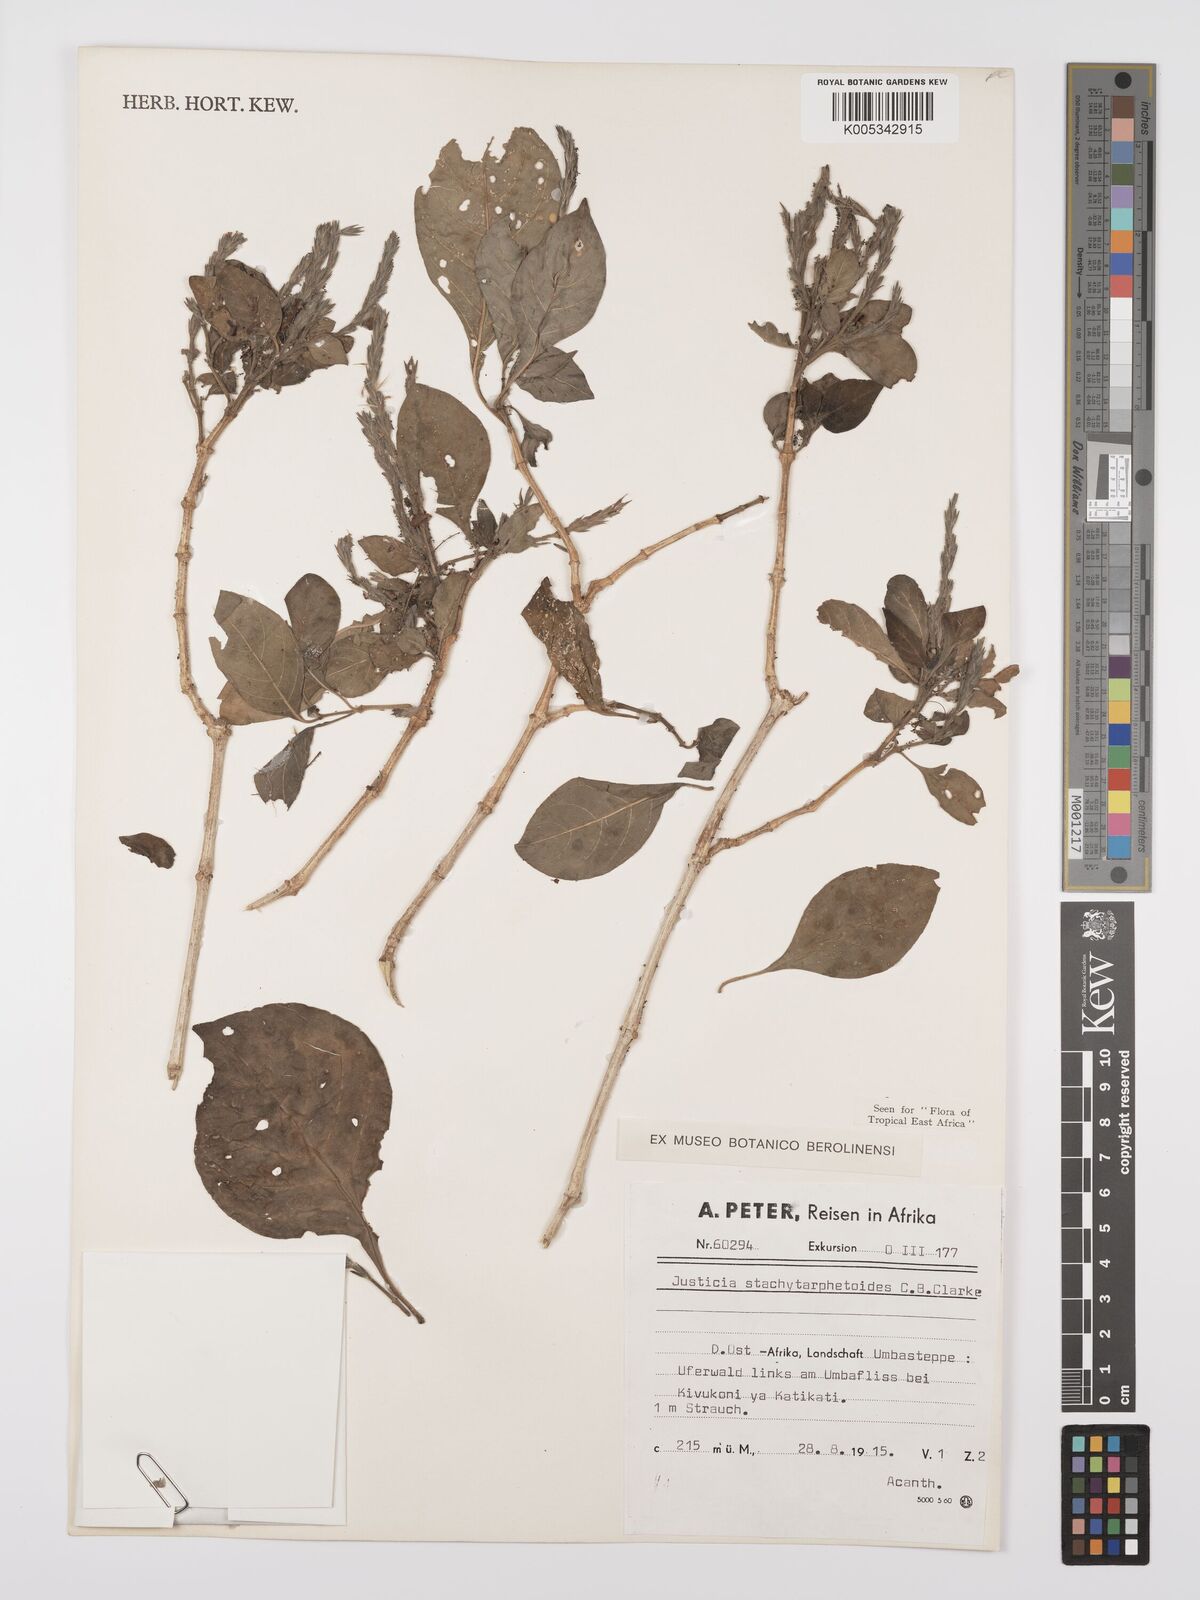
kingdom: Plantae
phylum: Tracheophyta
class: Magnoliopsida
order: Lamiales
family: Acanthaceae
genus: Justicia
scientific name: Justicia stachytarphetoides
